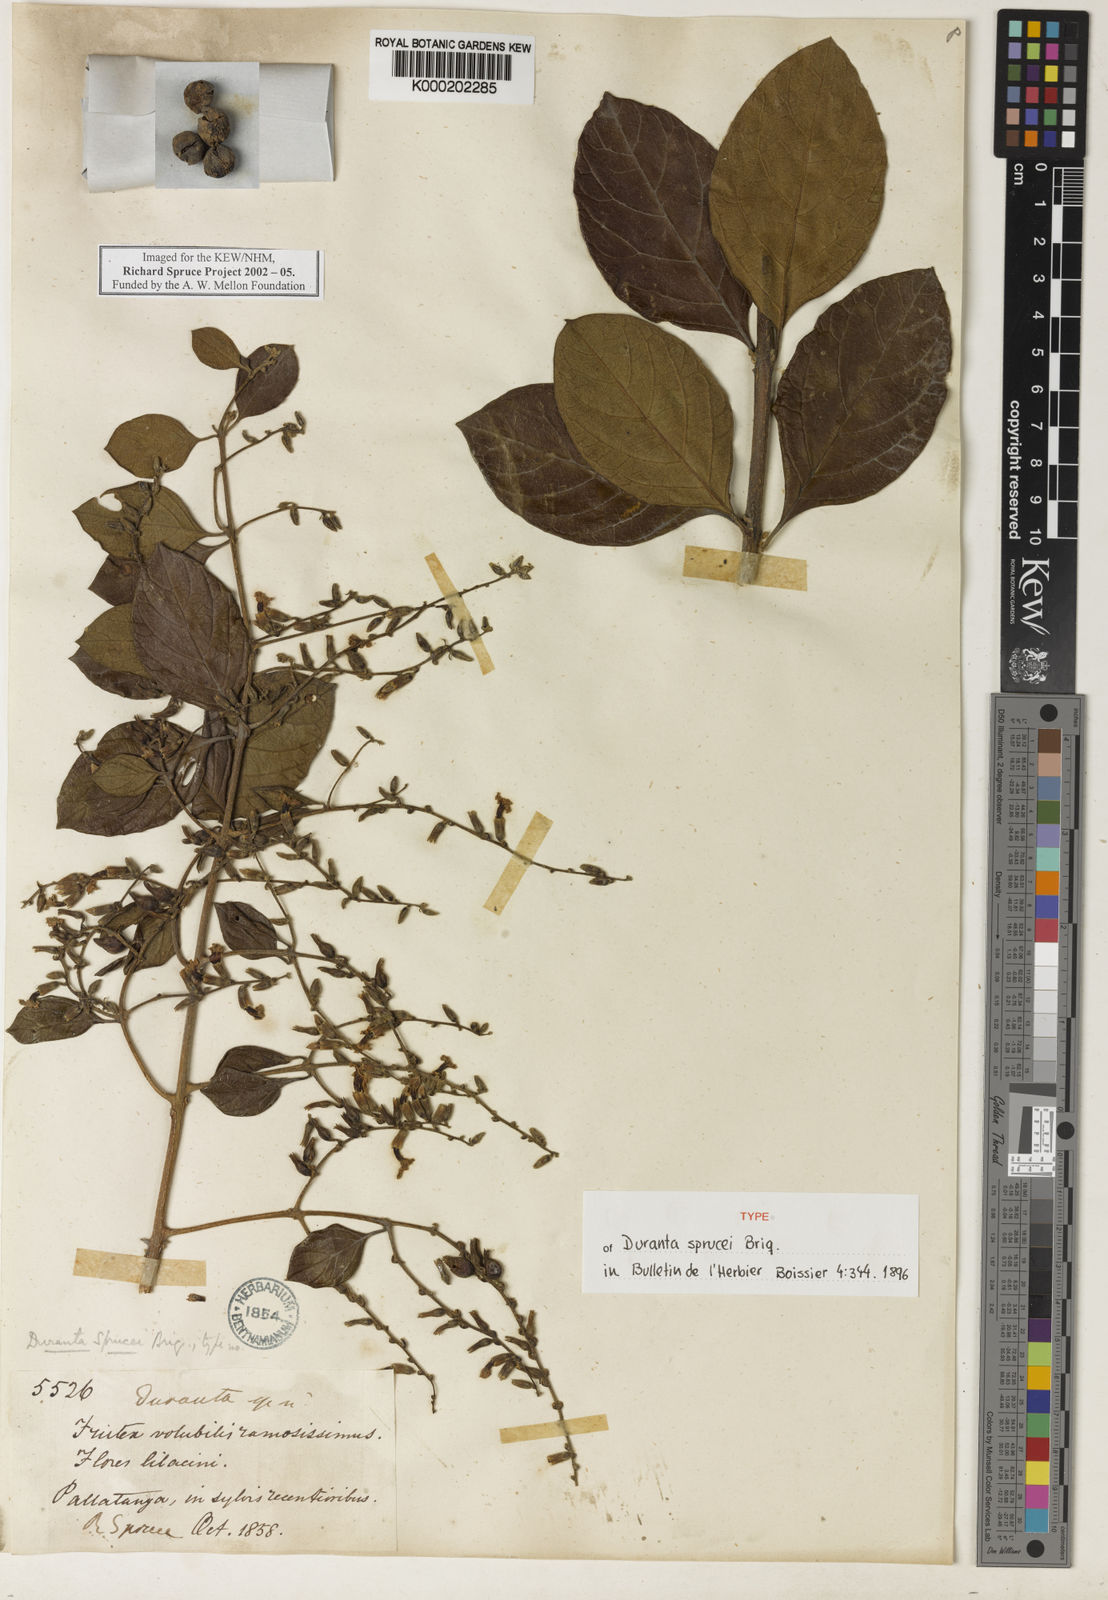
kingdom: Plantae
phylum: Tracheophyta
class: Magnoliopsida
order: Lamiales
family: Verbenaceae
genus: Duranta
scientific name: Duranta sprucei
